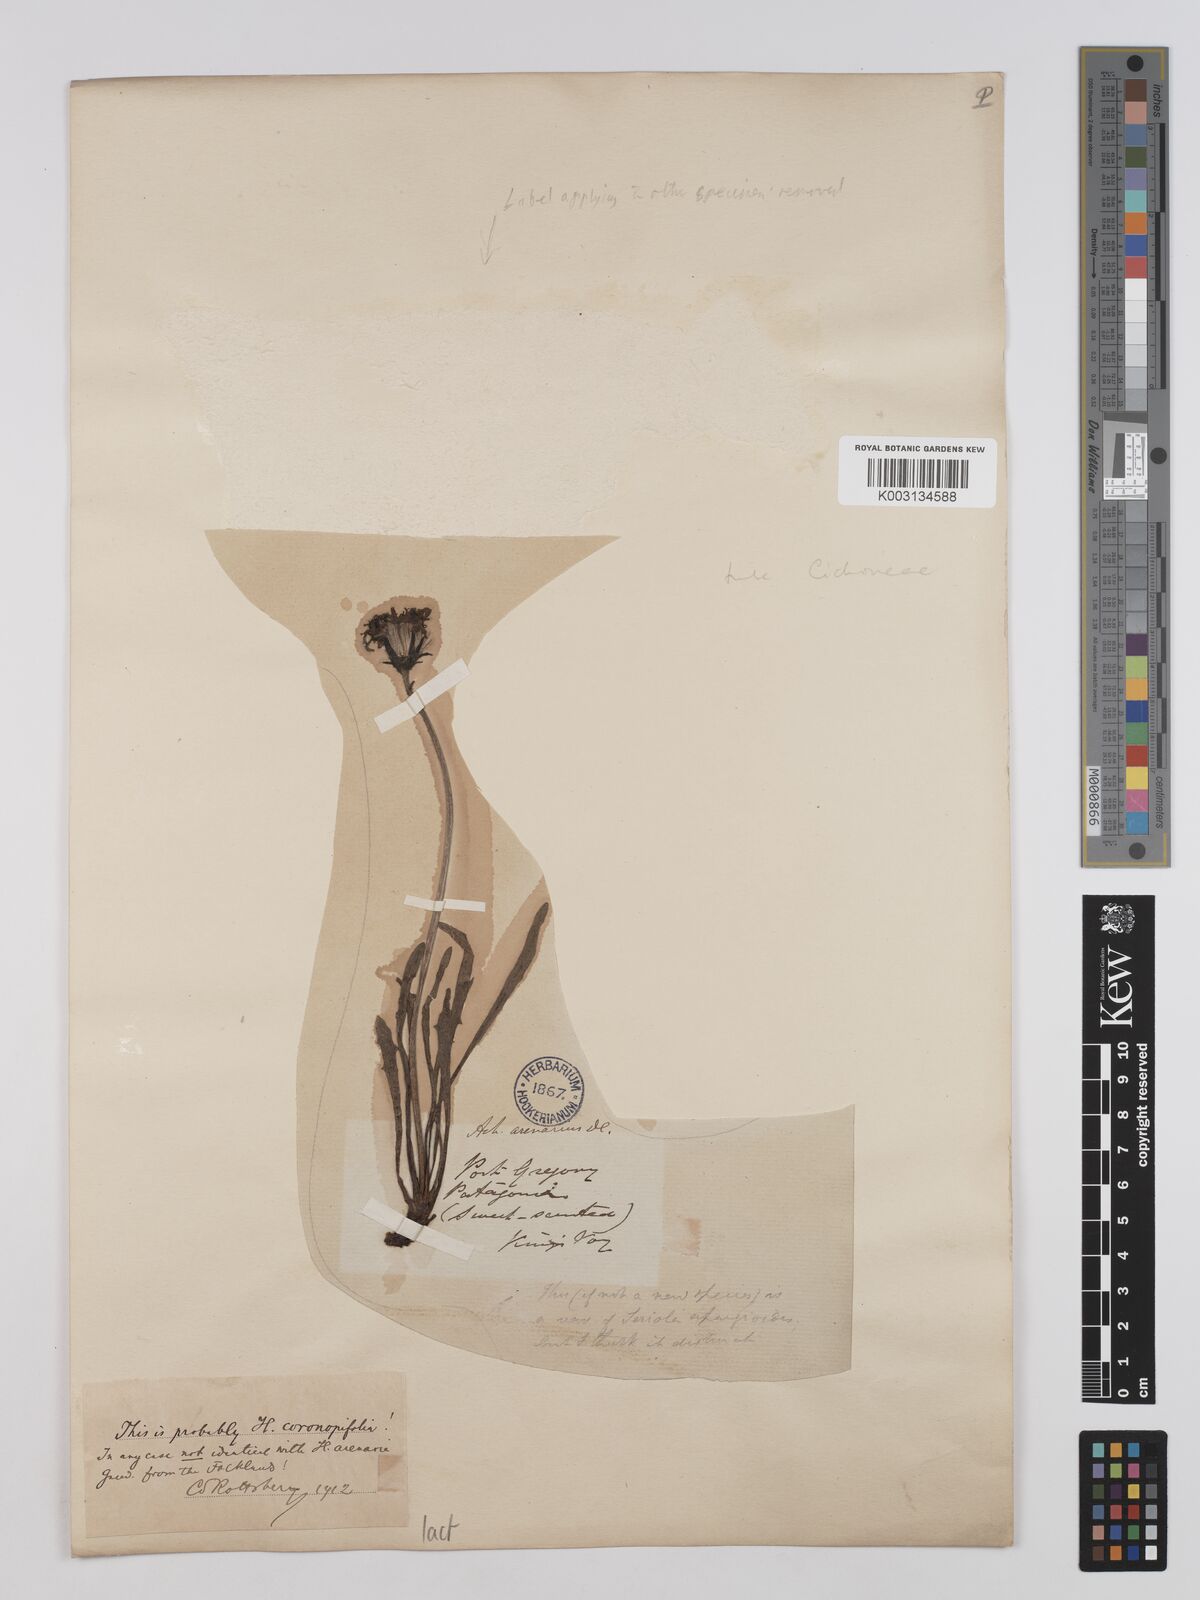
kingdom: Plantae
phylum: Tracheophyta
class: Magnoliopsida
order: Asterales
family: Asteraceae
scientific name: Asteraceae
